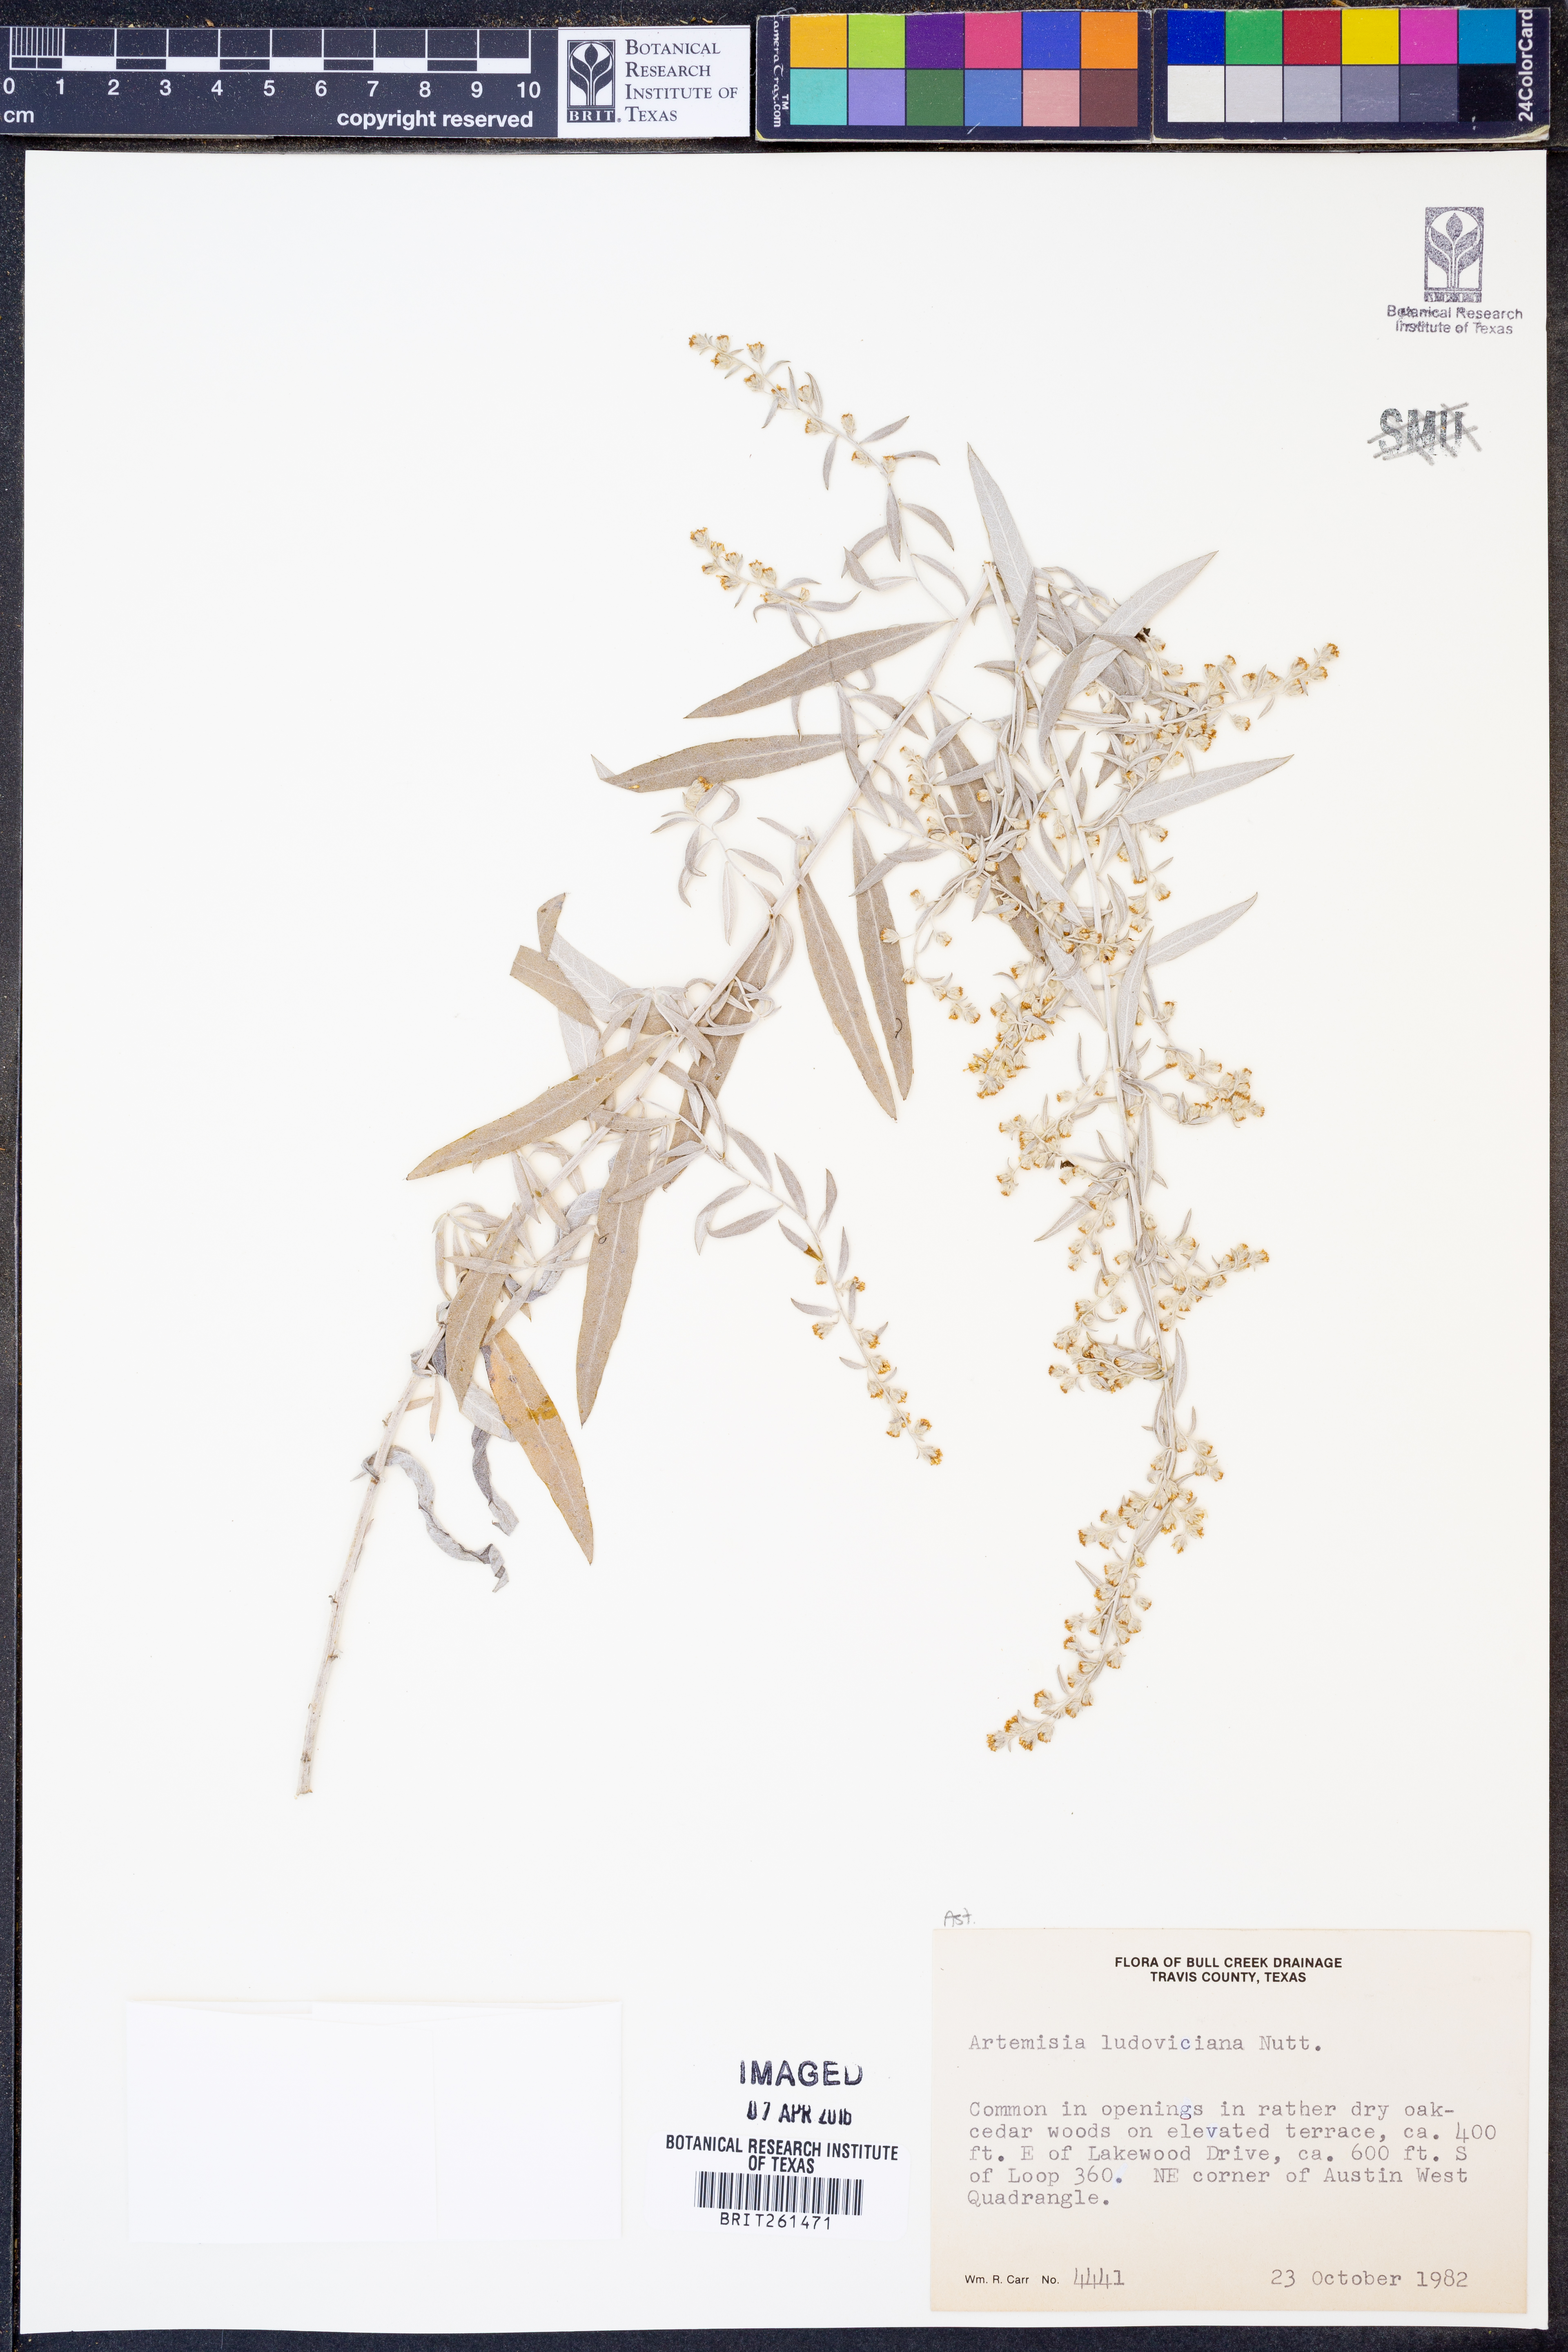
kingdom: Plantae
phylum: Tracheophyta
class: Magnoliopsida
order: Asterales
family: Asteraceae
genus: Artemisia
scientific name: Artemisia ludoviciana
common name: Western mugwort
